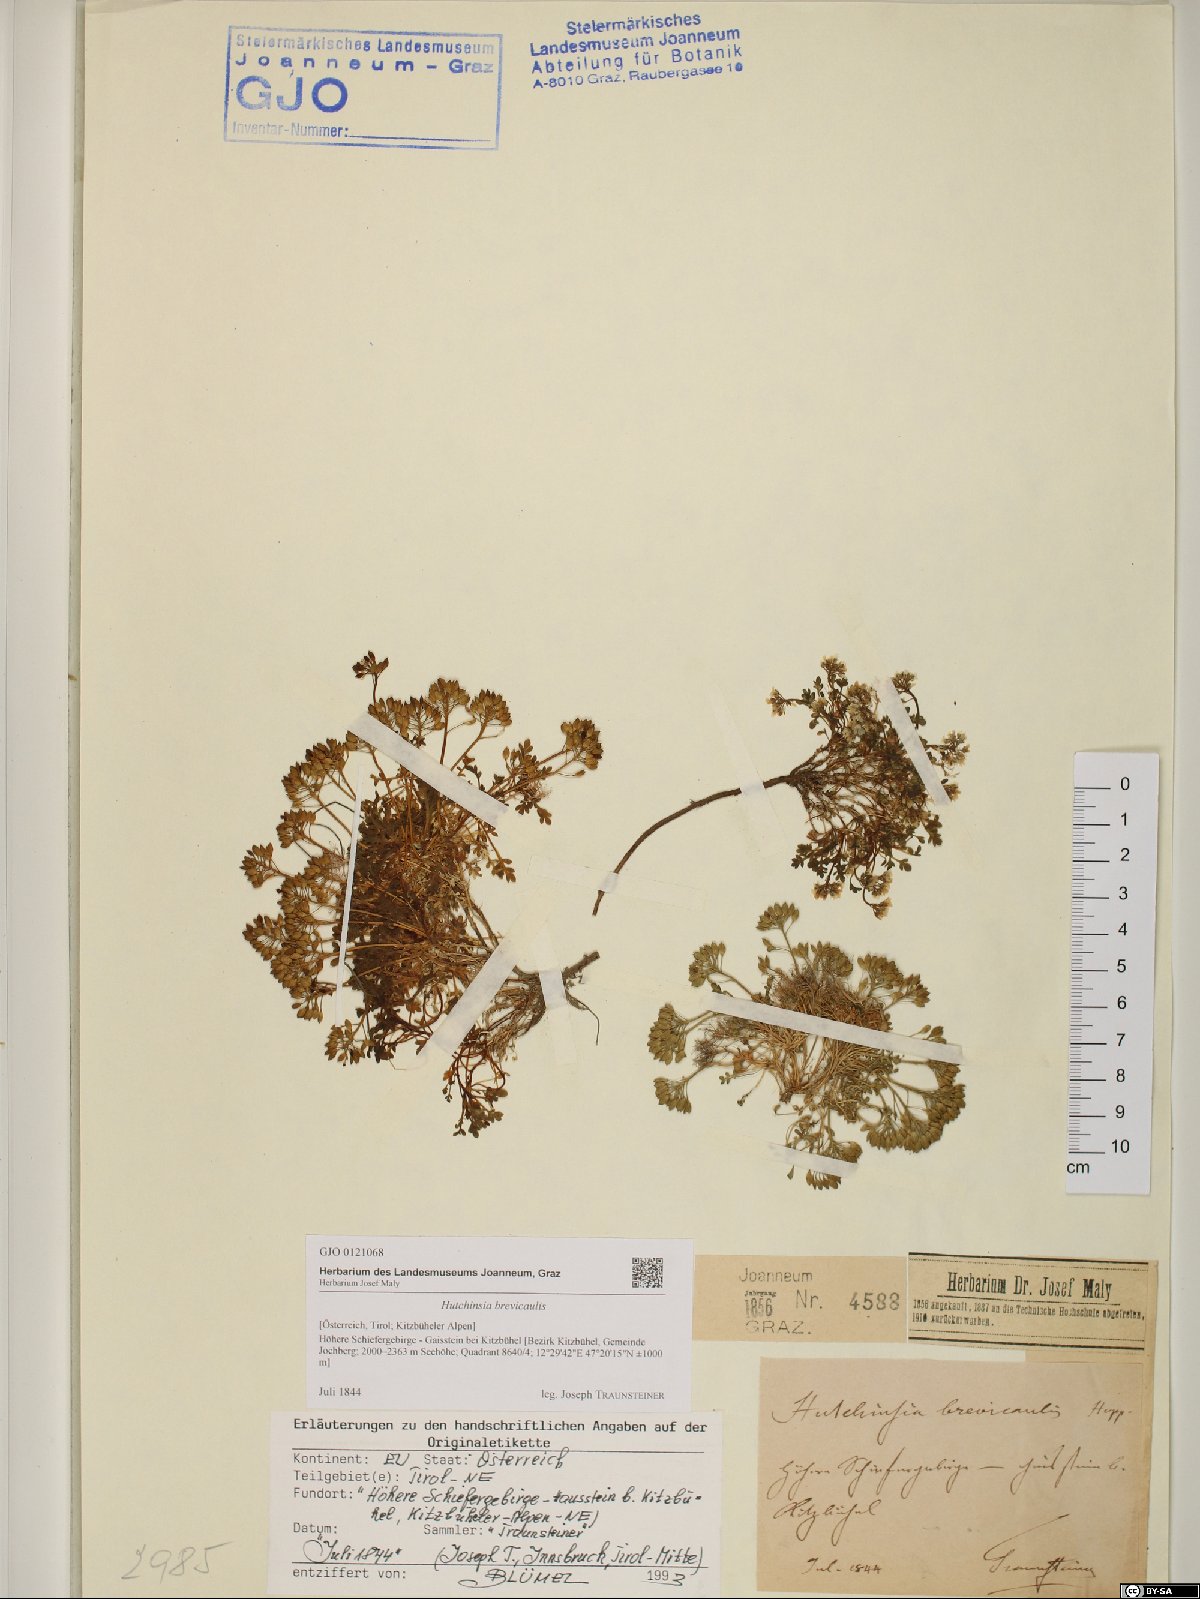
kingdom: Plantae
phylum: Tracheophyta
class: Magnoliopsida
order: Brassicales
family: Brassicaceae
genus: Hornungia
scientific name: Hornungia alpina
